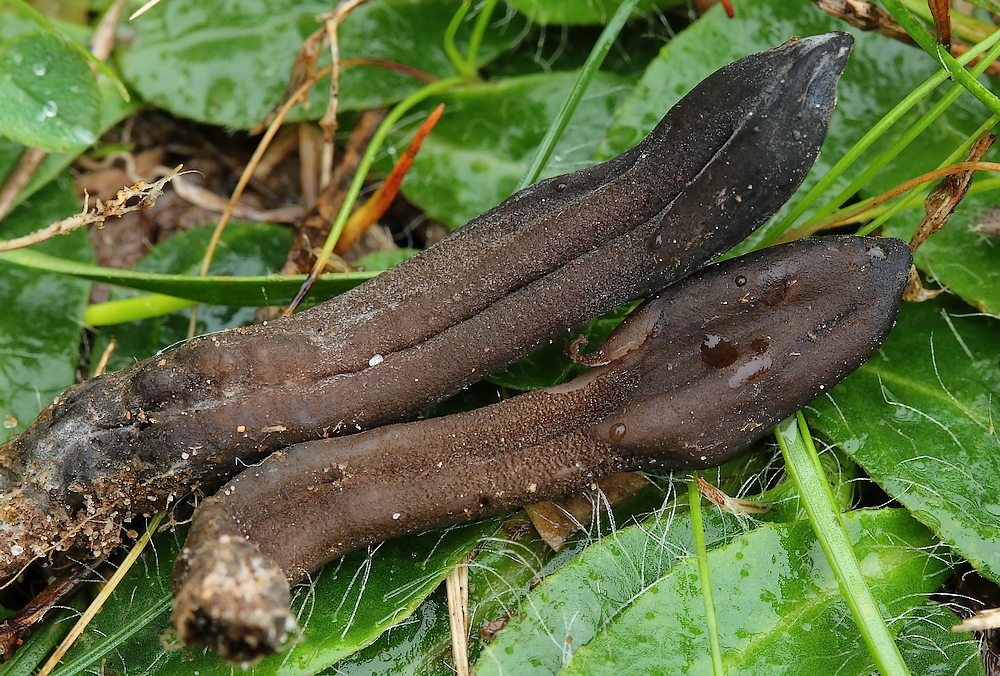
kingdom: Fungi
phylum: Ascomycota
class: Sordariomycetes
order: Hypocreales
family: Hypocreaceae
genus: Hypomyces
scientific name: Hypomyces papulasporae
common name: jordtunge-snylteskorpe
